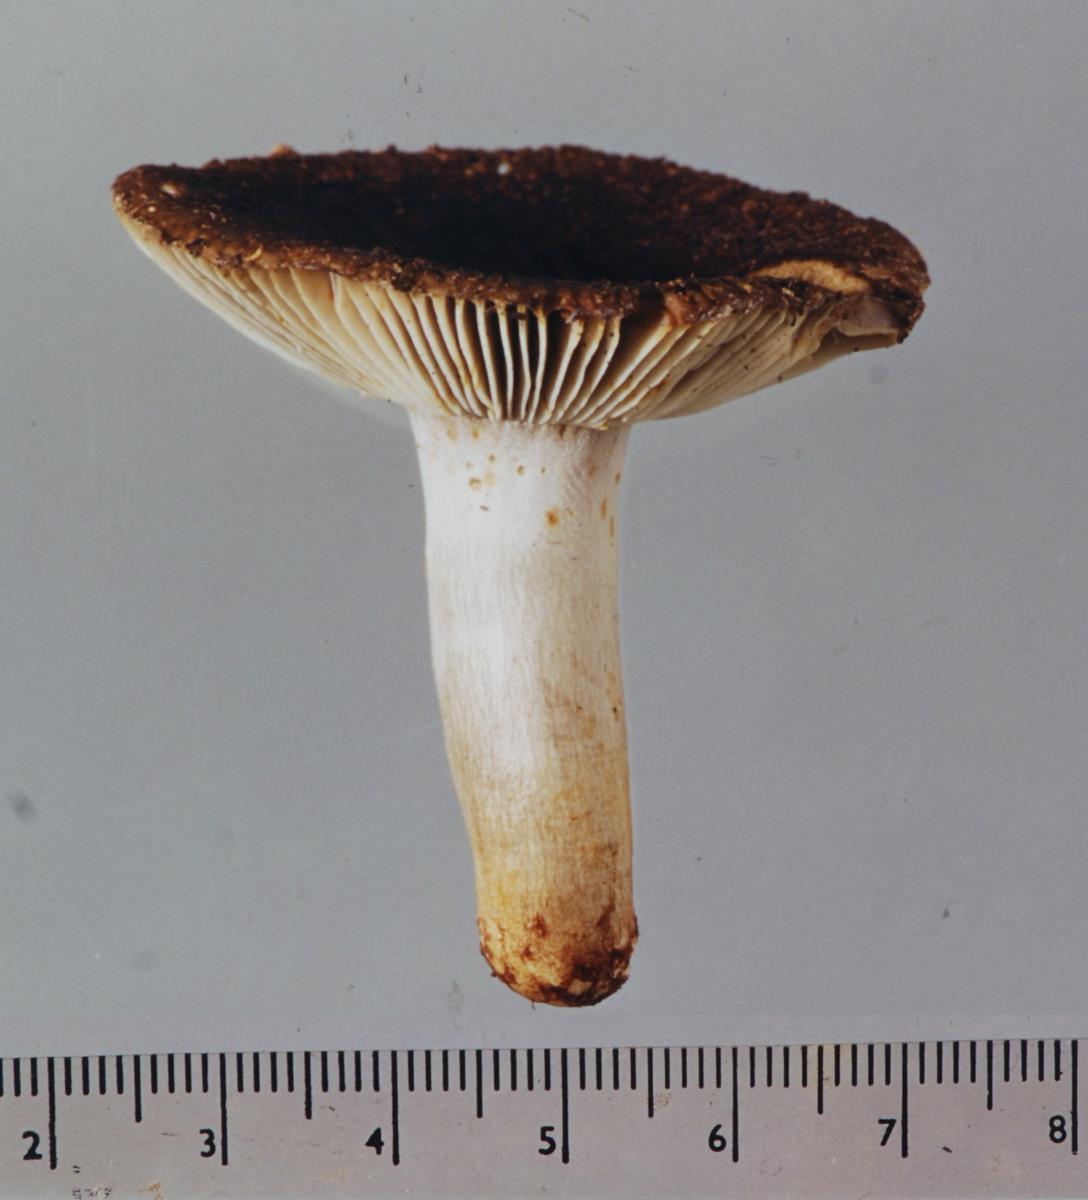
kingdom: Fungi
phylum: Basidiomycota
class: Agaricomycetes
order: Russulales
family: Russulaceae
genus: Russula
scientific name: Russula vinaceocuticulata
